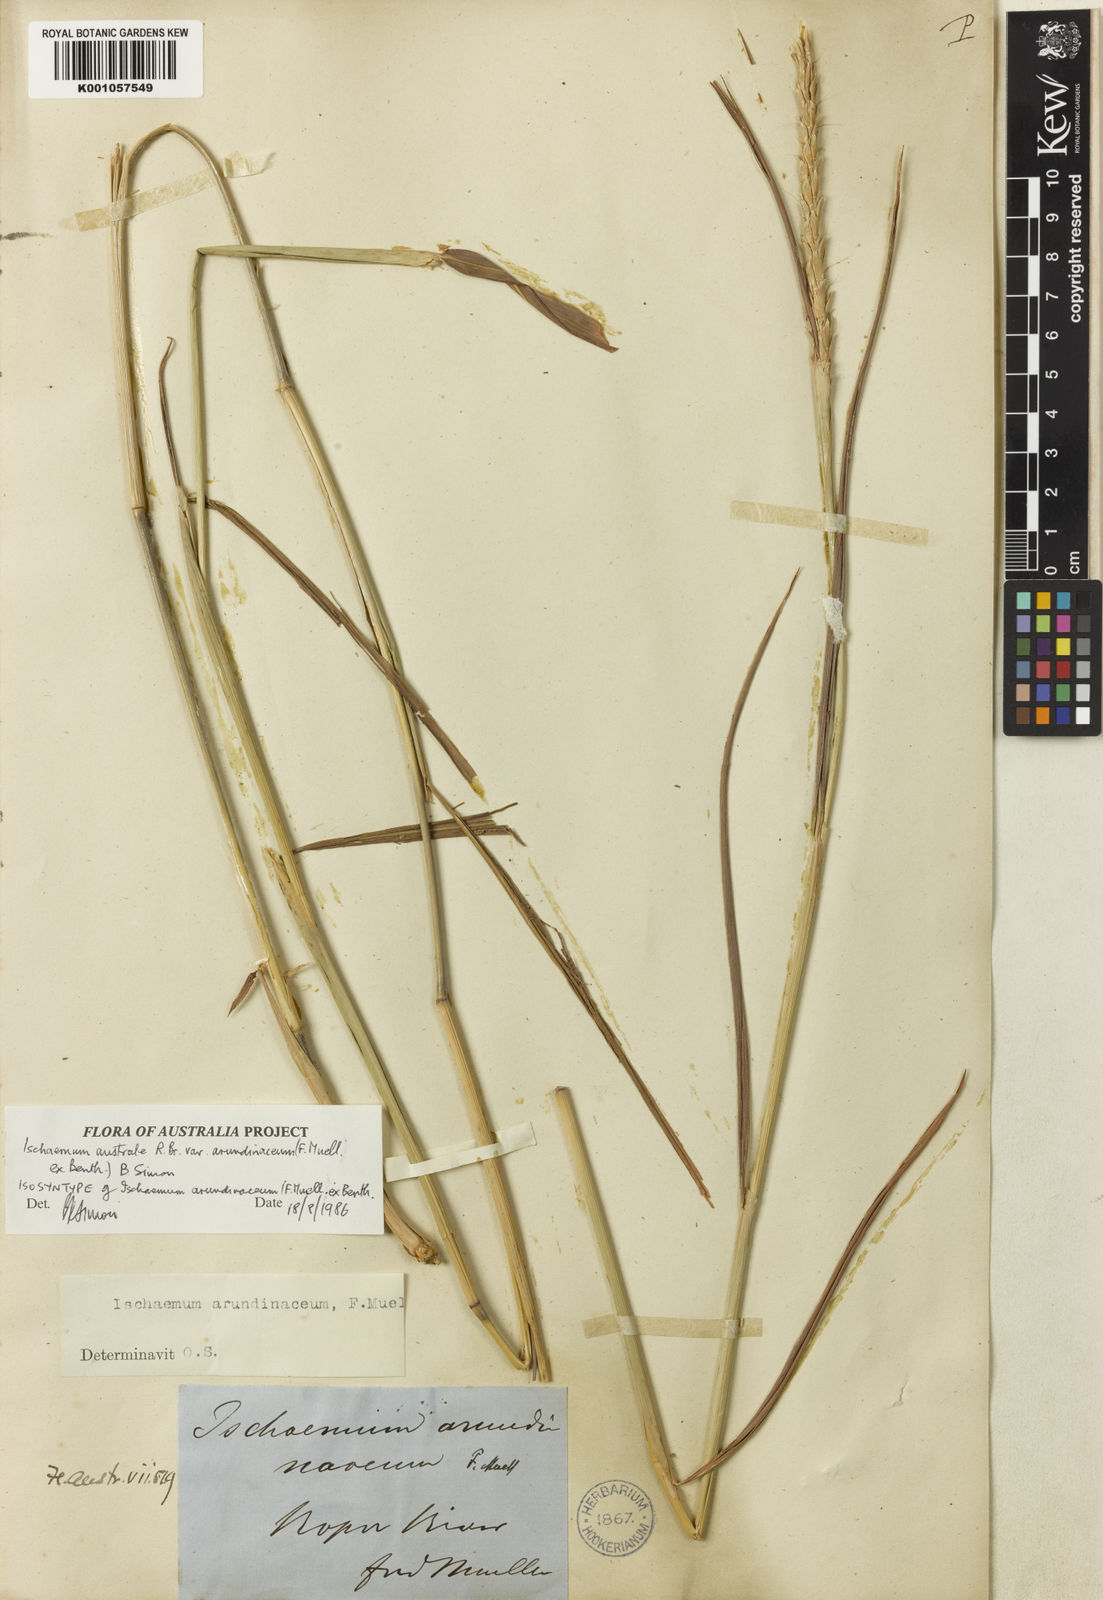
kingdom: Plantae
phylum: Tracheophyta
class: Liliopsida
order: Poales
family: Poaceae
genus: Ischaemum
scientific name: Ischaemum australe
